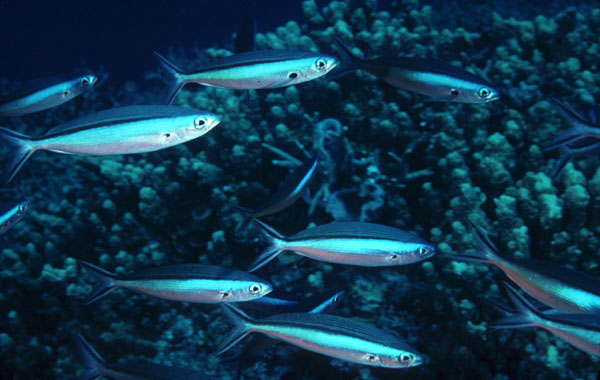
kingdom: Animalia
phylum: Chordata
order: Perciformes
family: Caesionidae
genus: Pterocaesio
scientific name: Pterocaesio tile
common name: Dark-banded fusilier
